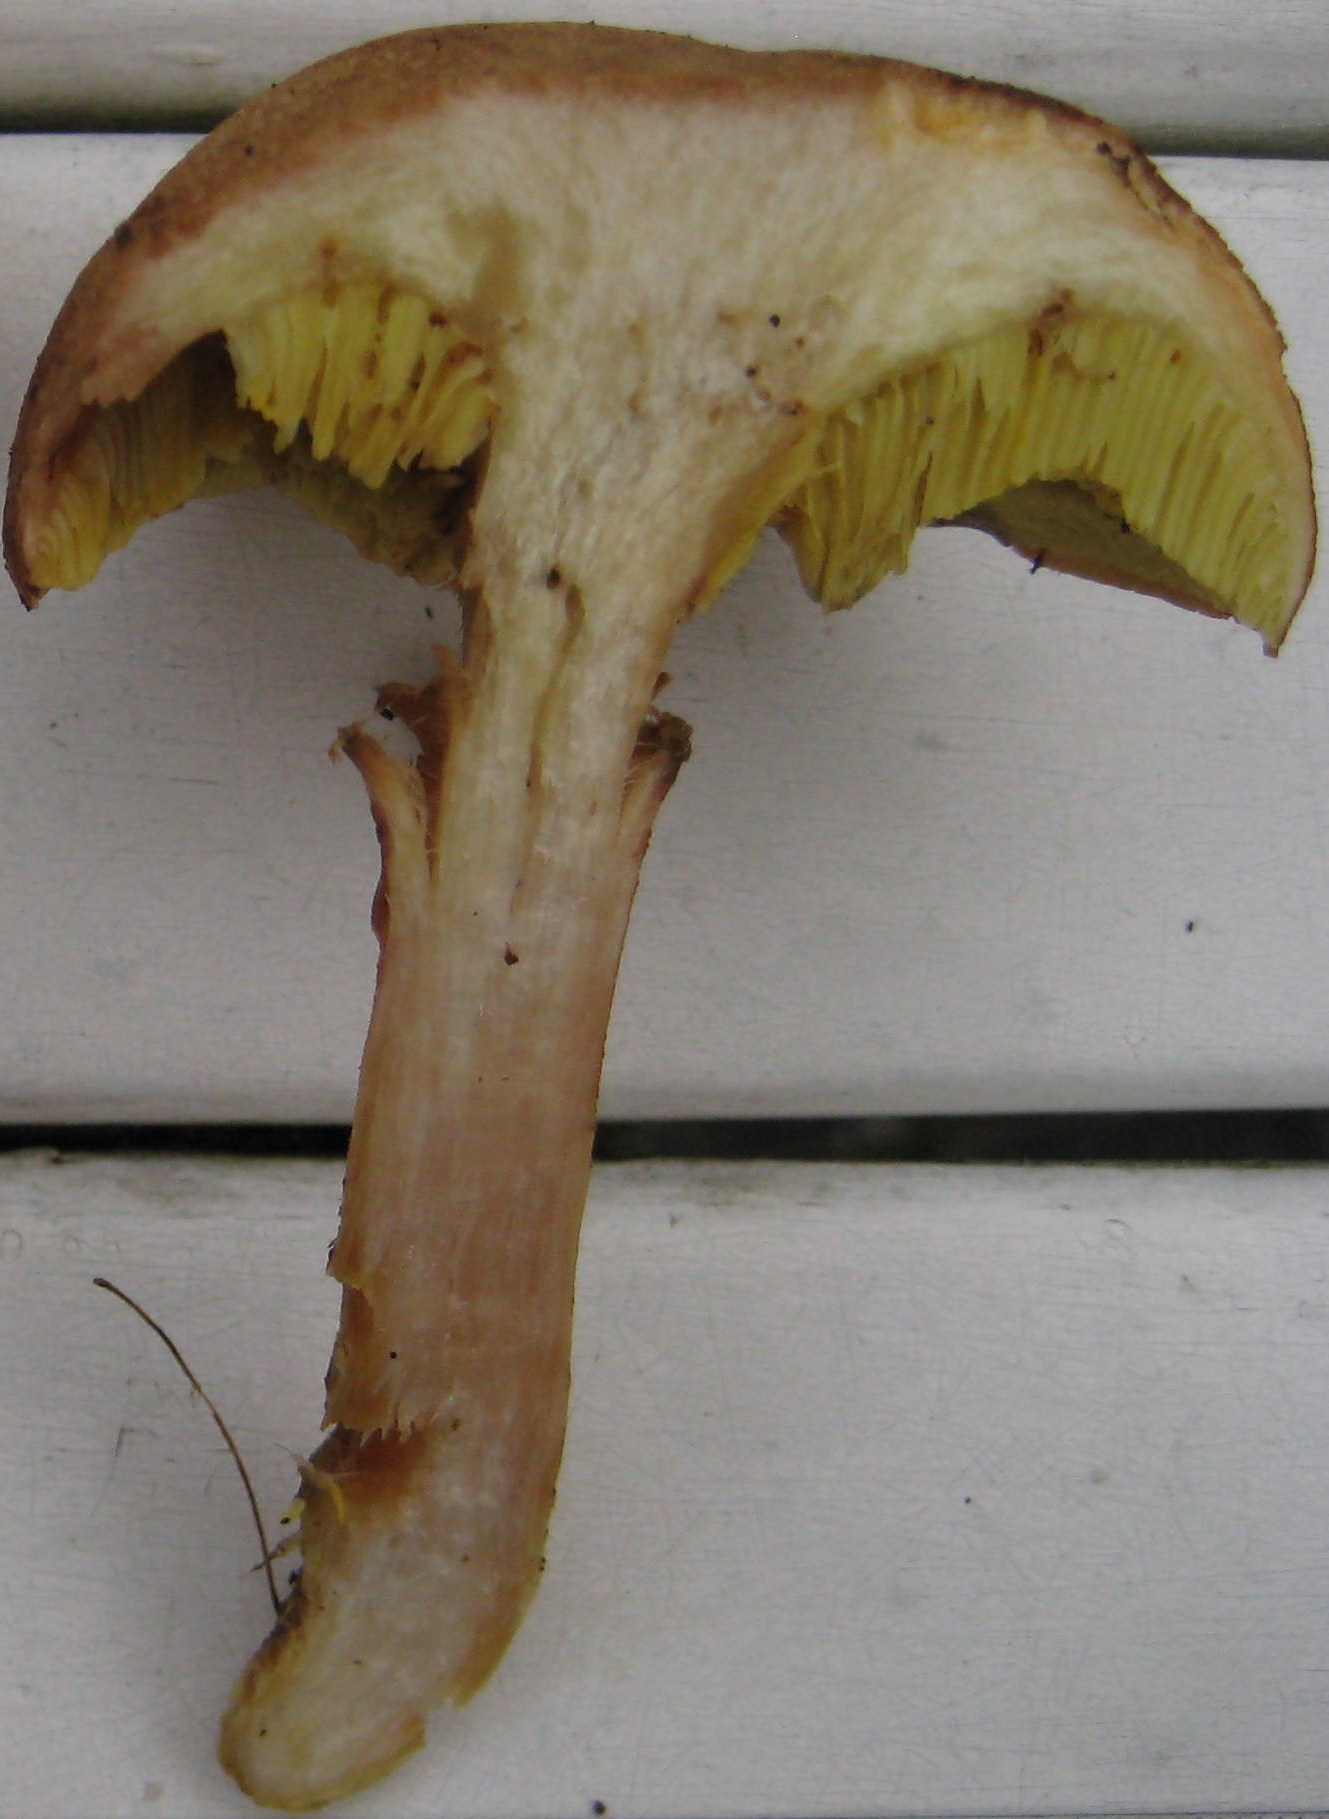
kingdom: Fungi
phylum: Basidiomycota
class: Agaricomycetes
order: Boletales
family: Boletaceae
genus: Xerocomus
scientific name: Xerocomus subtomentosus
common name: filtet rørhat
